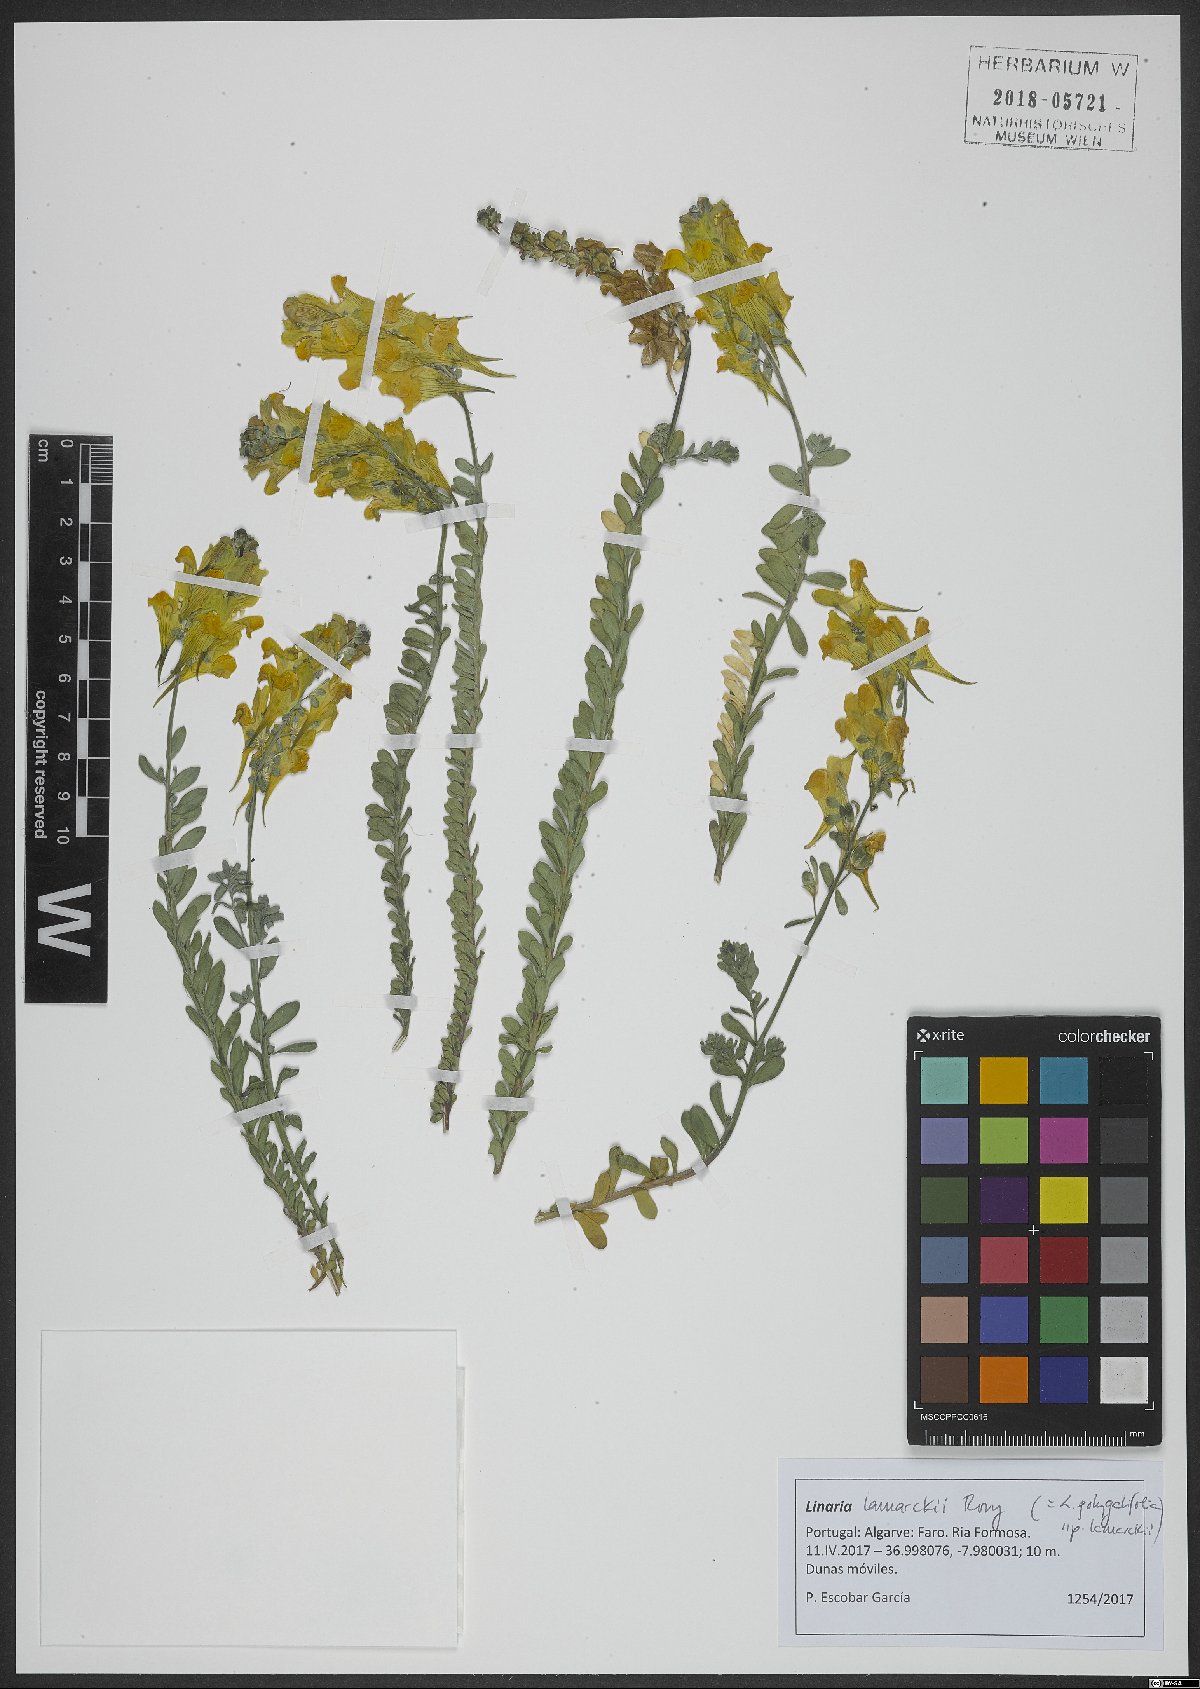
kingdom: Plantae
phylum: Tracheophyta
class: Magnoliopsida
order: Lamiales
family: Plantaginaceae
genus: Linaria
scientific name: Linaria polygalifolia
